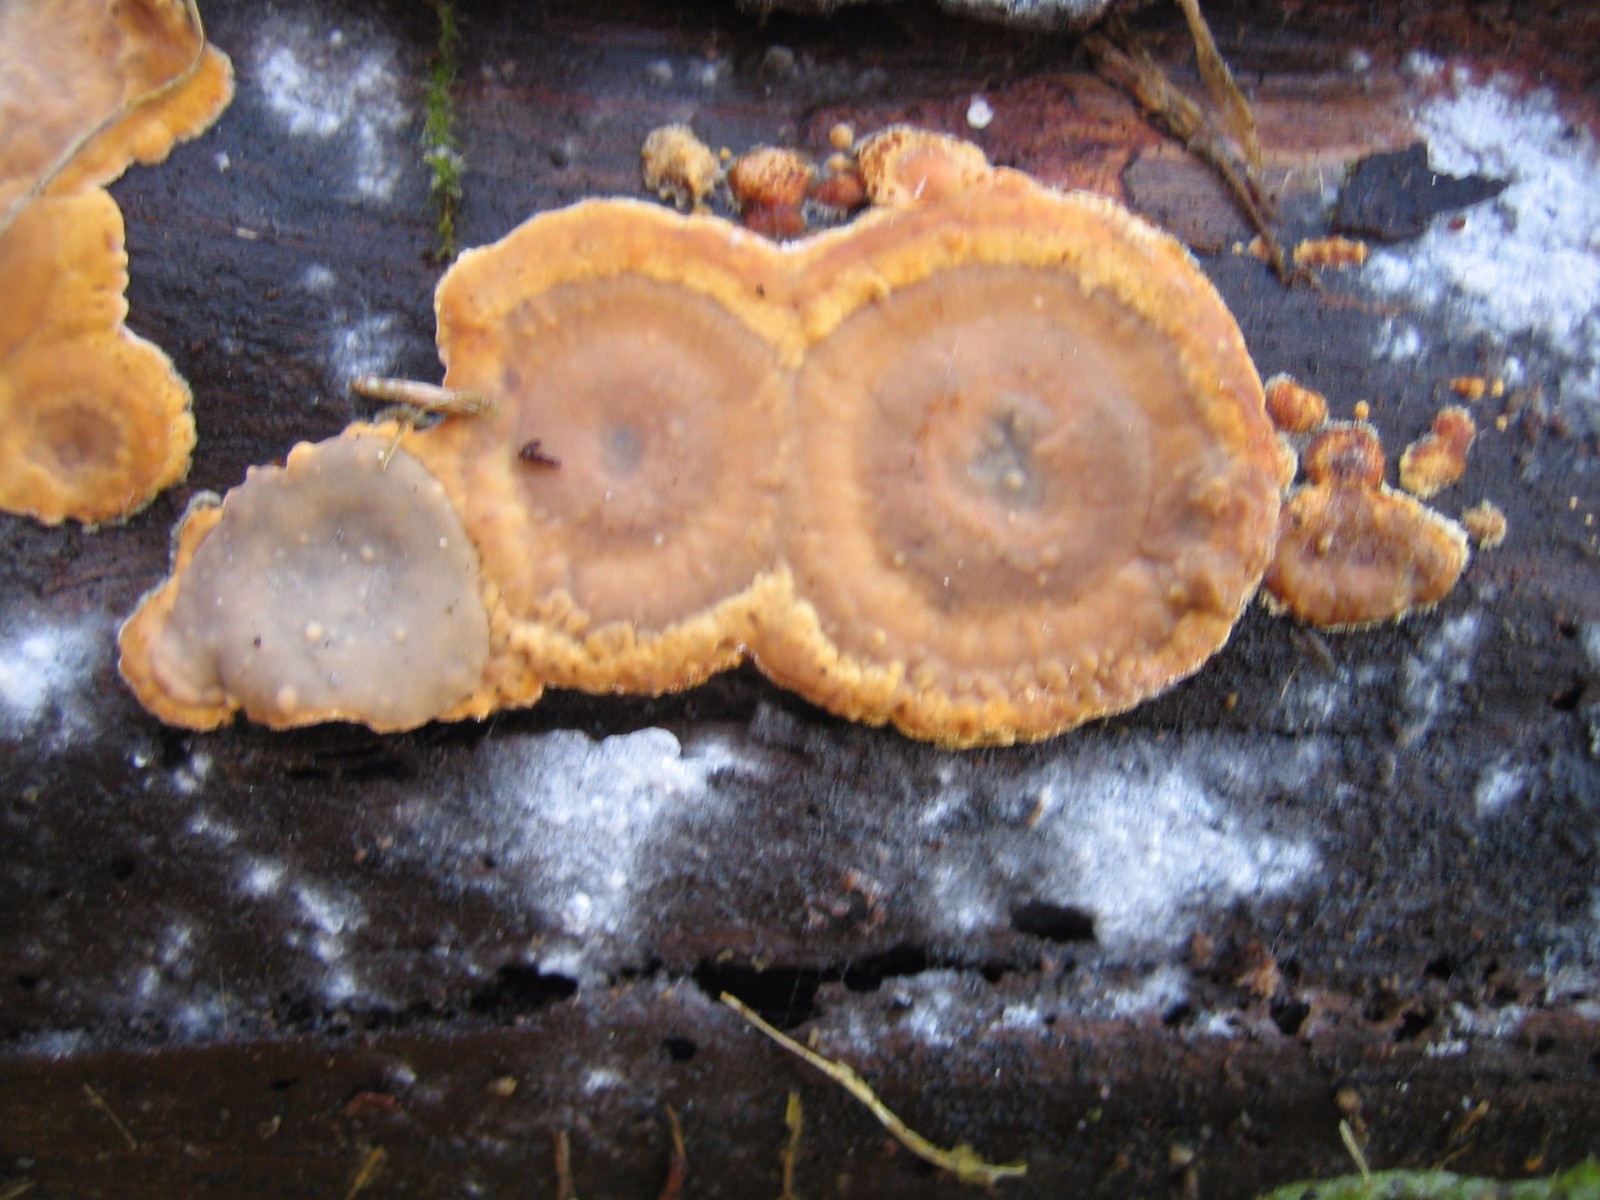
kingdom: Fungi
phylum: Basidiomycota
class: Agaricomycetes
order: Russulales
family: Stereaceae
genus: Stereum
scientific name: Stereum hirsutum
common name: håret lædersvamp
